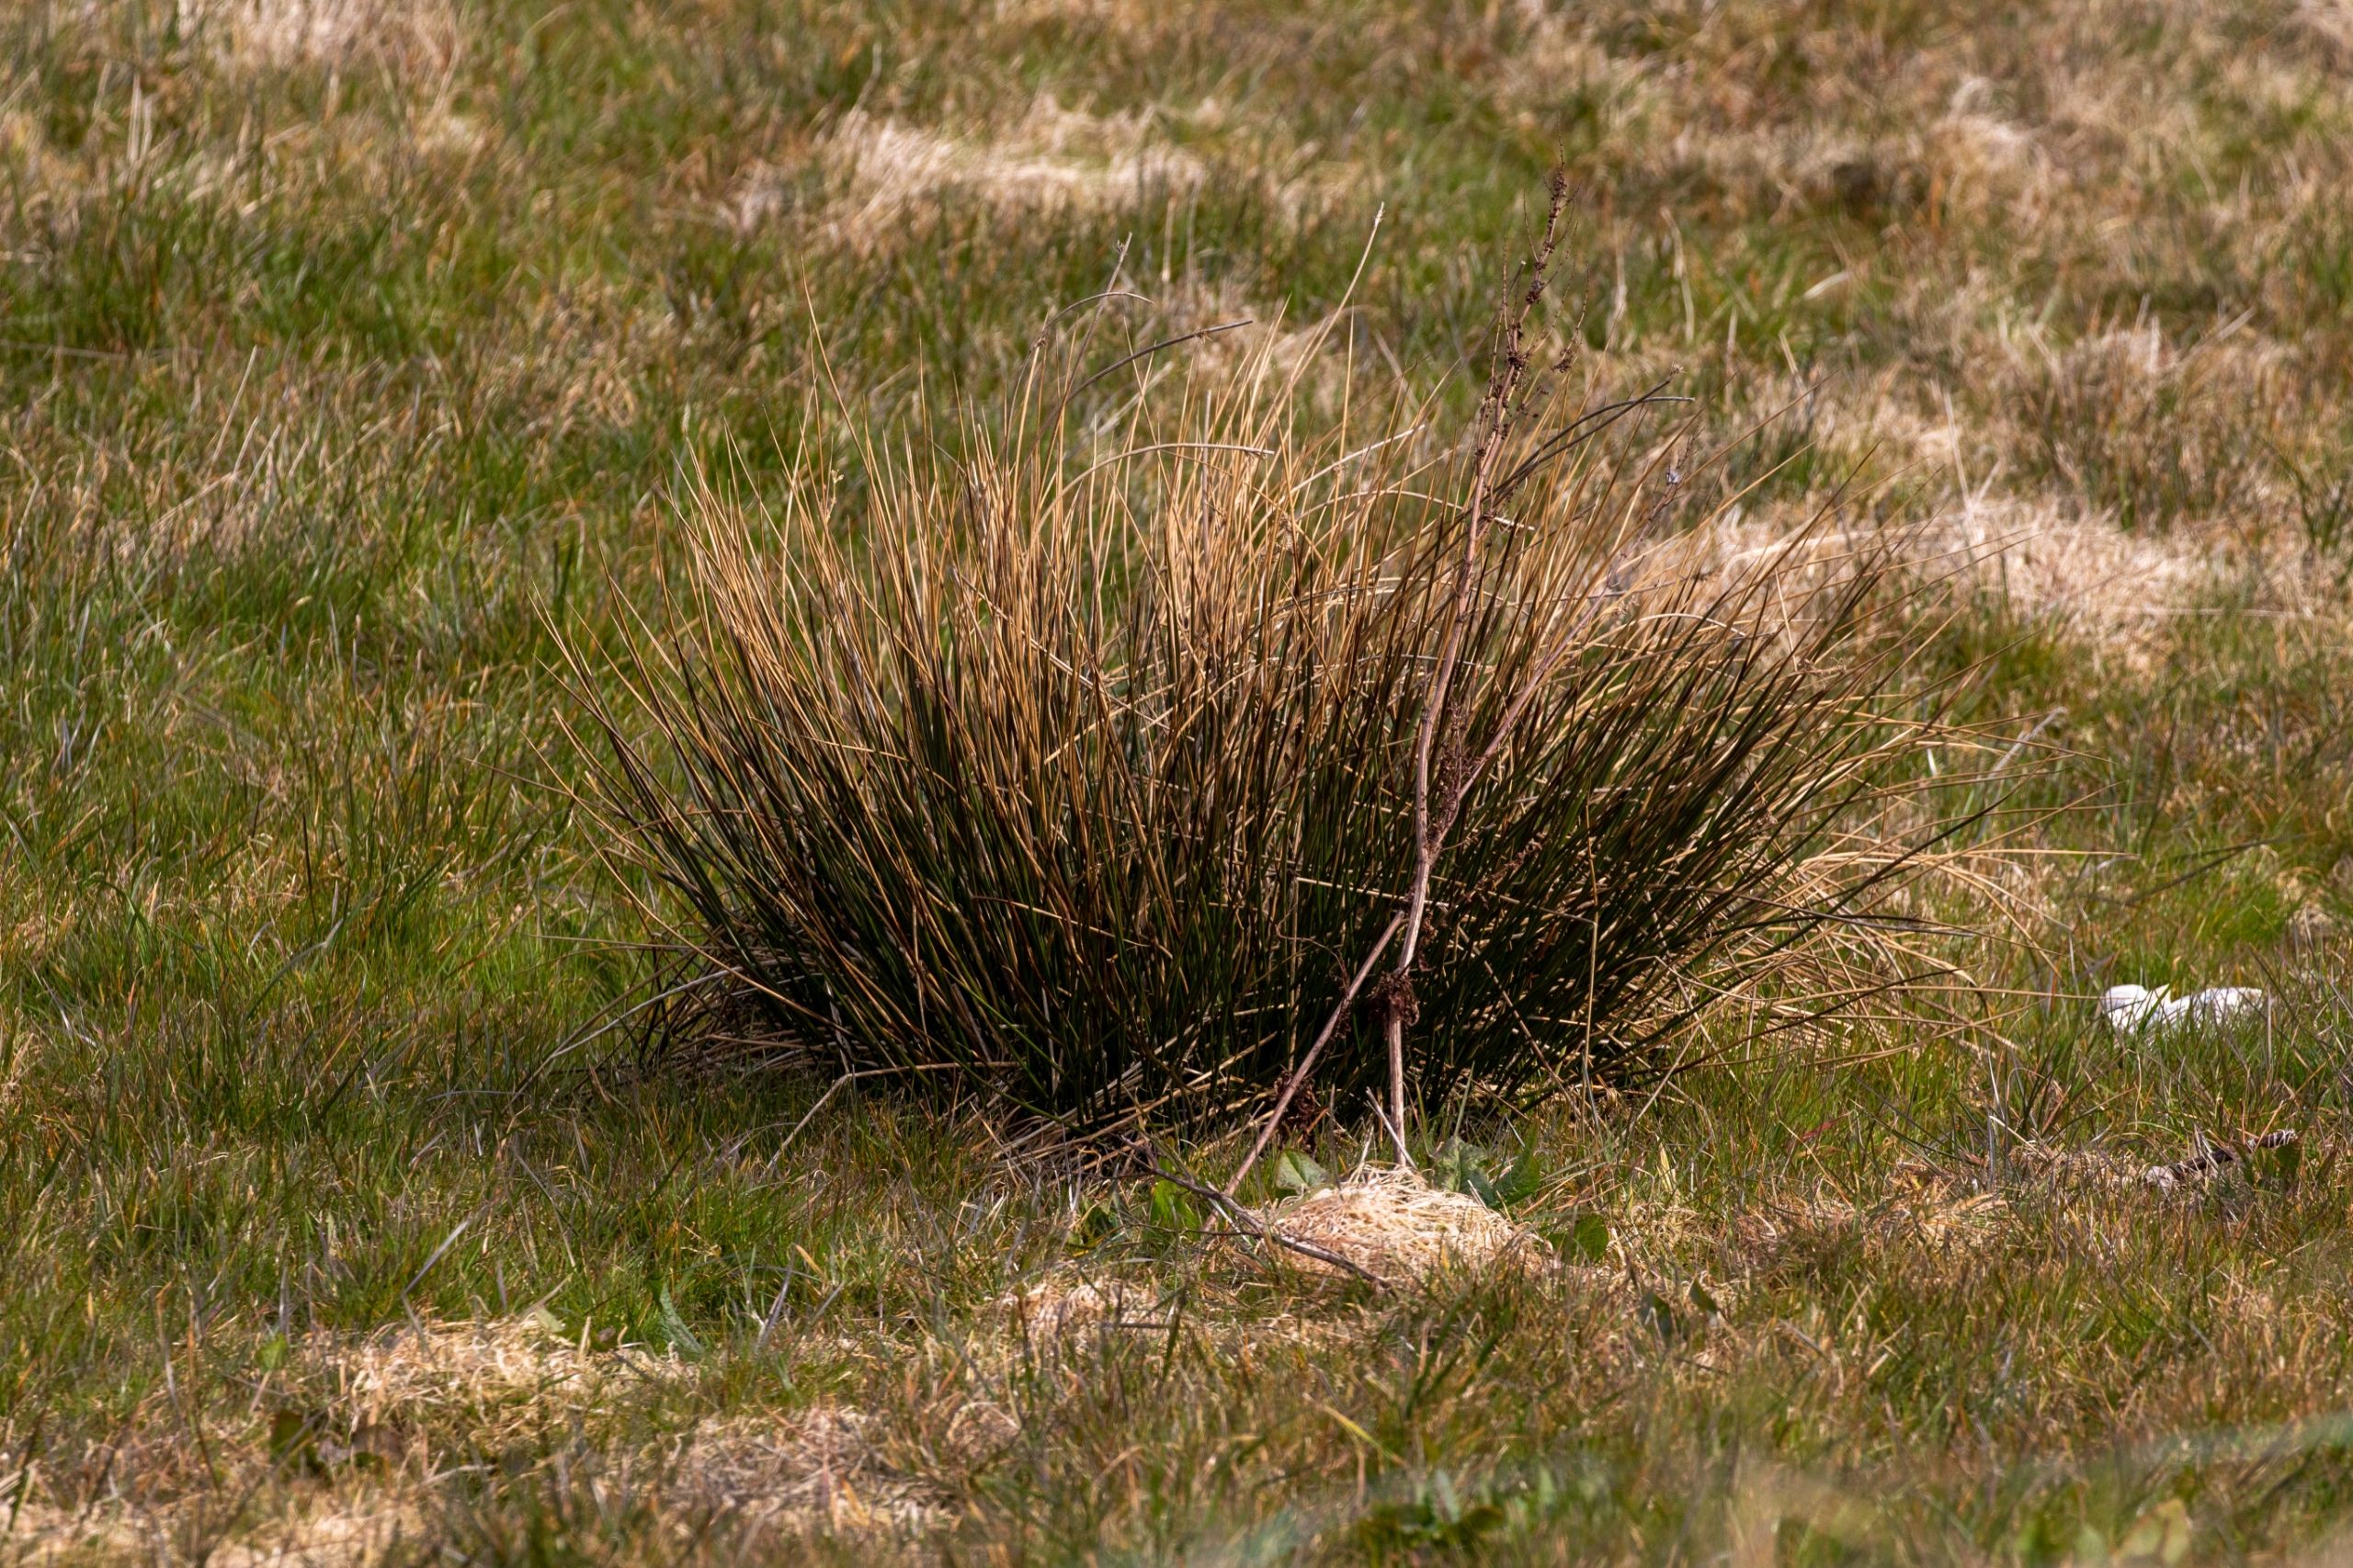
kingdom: Plantae
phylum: Tracheophyta
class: Liliopsida
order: Poales
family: Juncaceae
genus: Juncus
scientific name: Juncus effusus
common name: Lyse-siv
